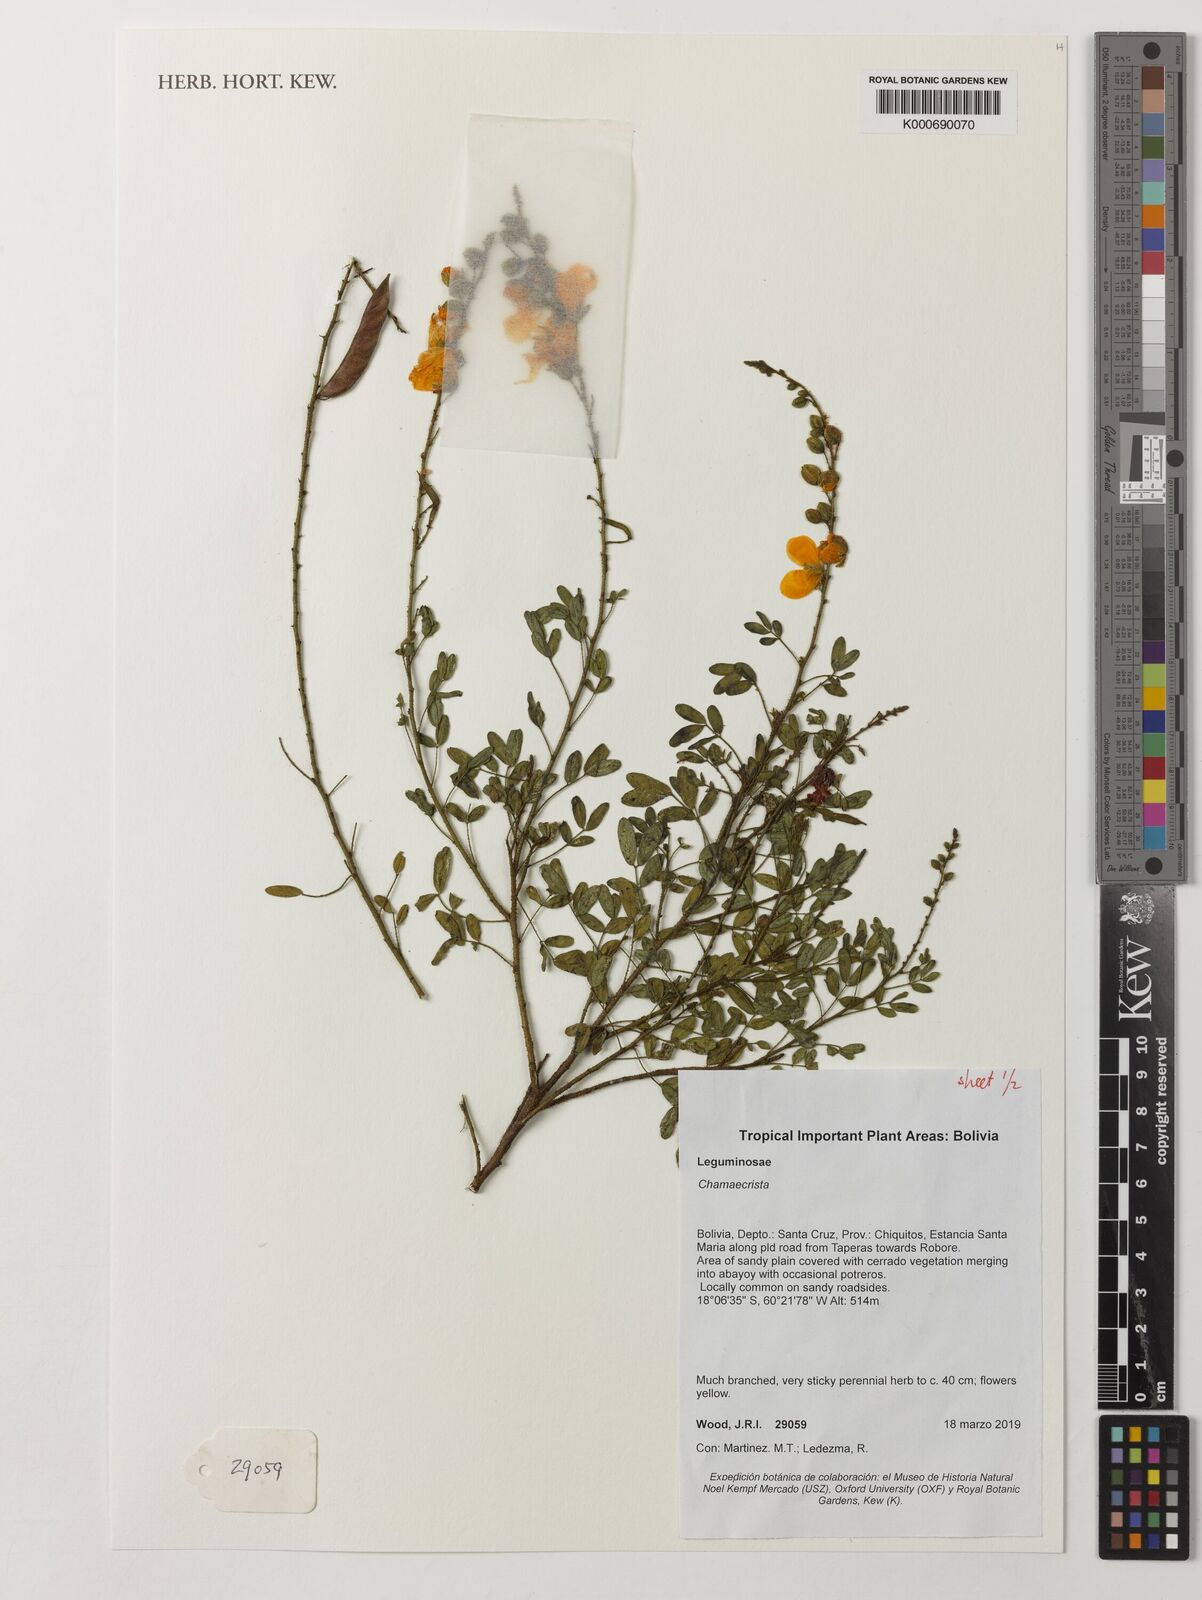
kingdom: Plantae
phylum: Tracheophyta
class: Magnoliopsida
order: Fabales
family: Fabaceae
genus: Chamaecrista
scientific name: Chamaecrista
